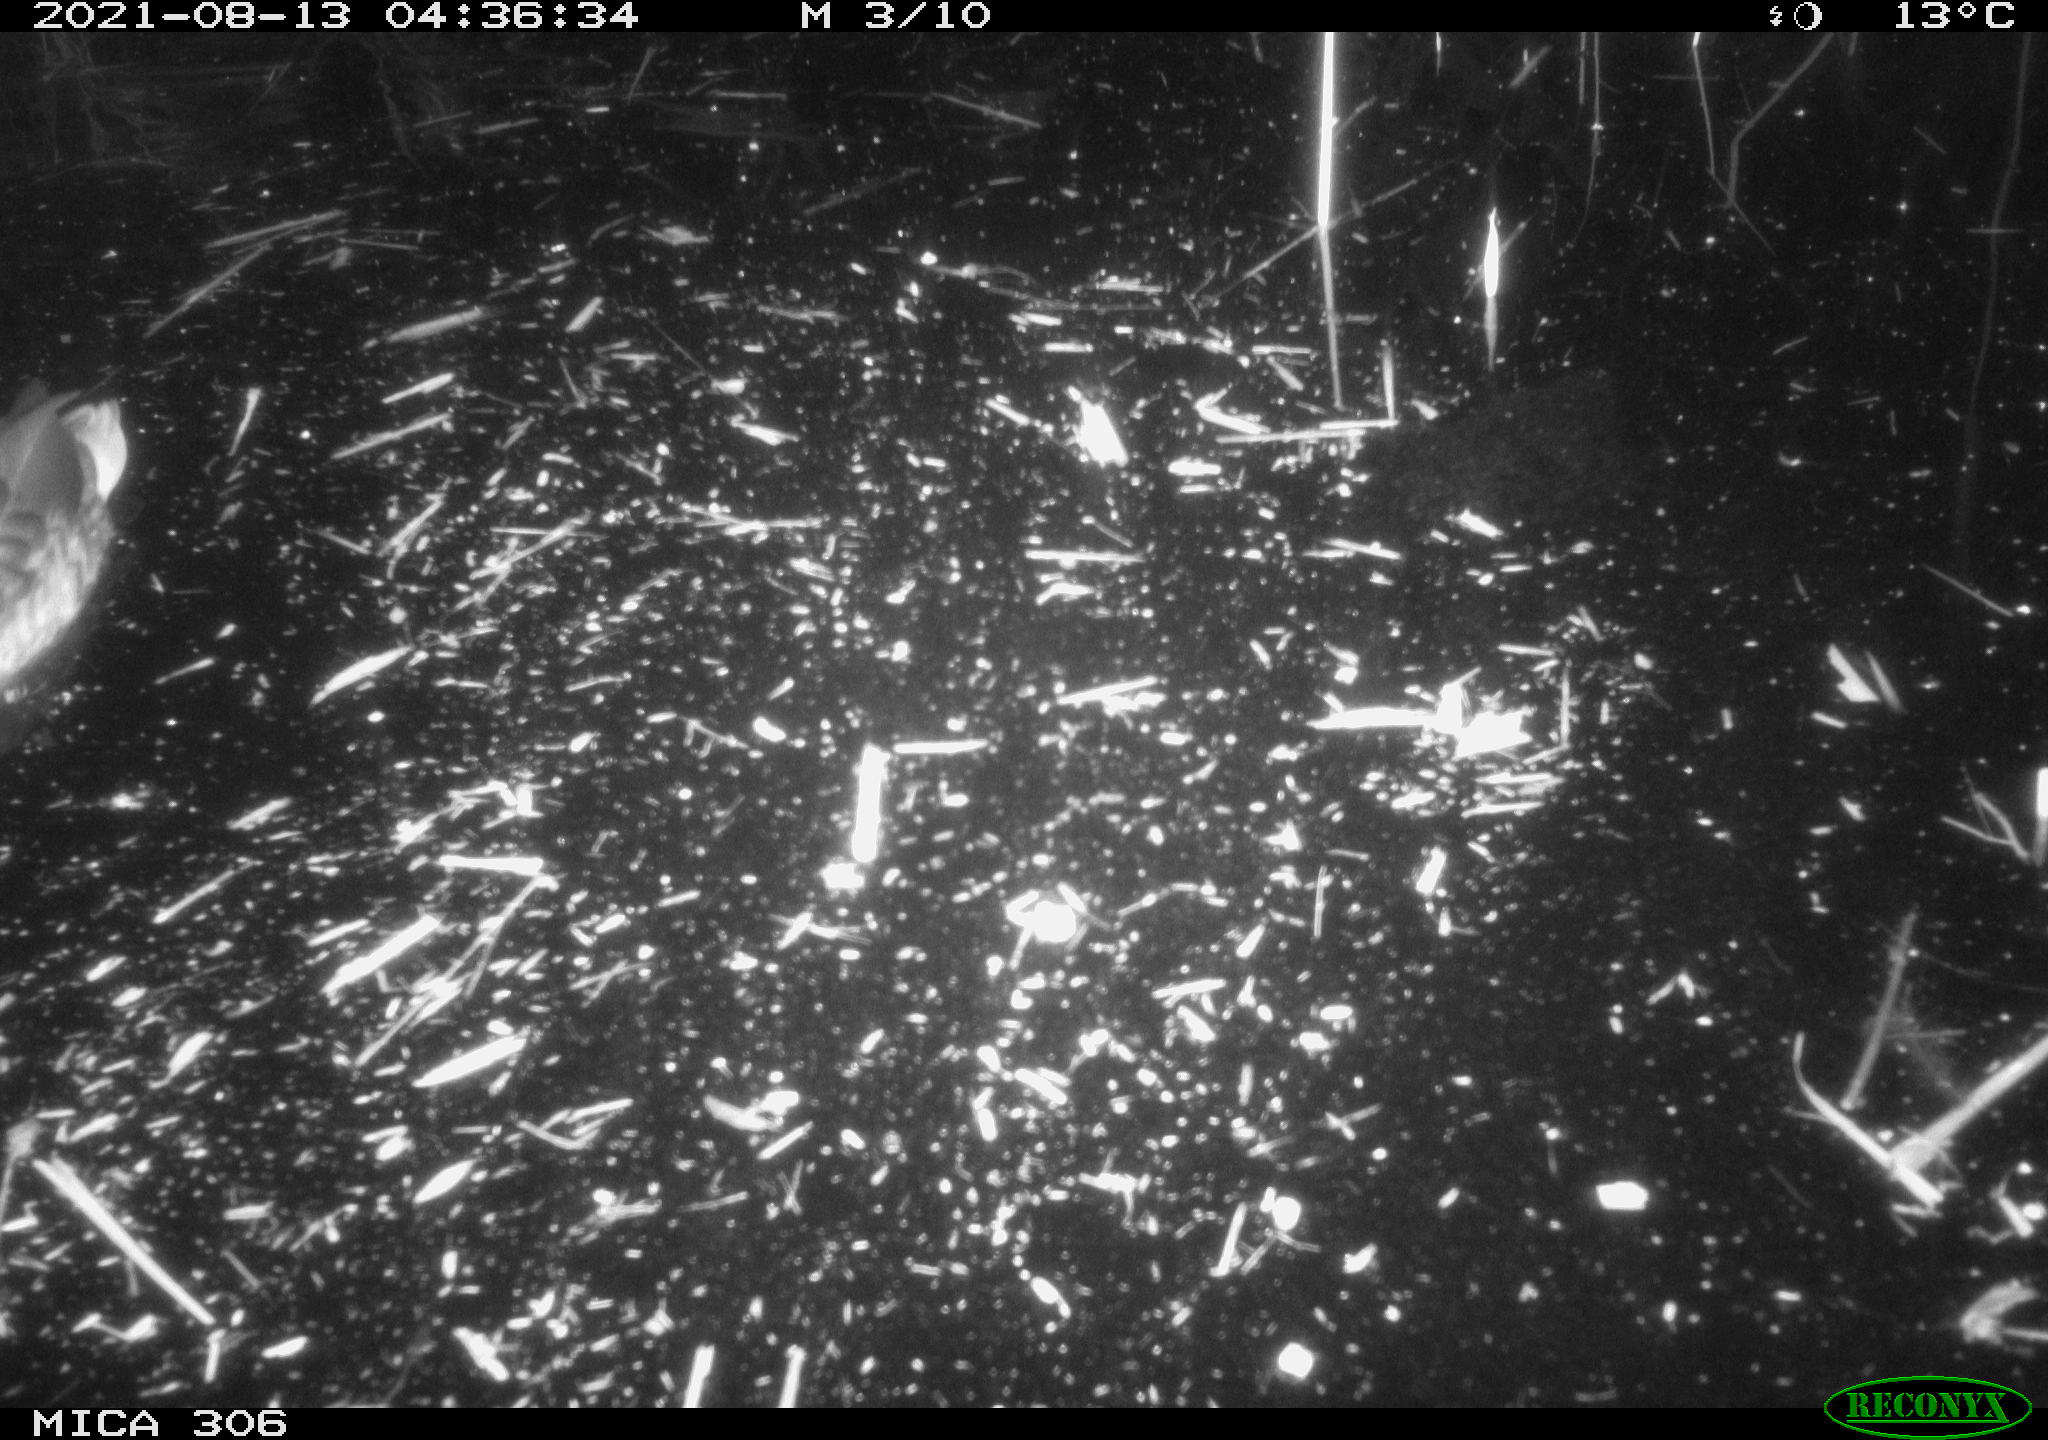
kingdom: Animalia
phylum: Chordata
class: Aves
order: Anseriformes
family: Anatidae
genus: Anas
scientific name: Anas platyrhynchos
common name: Mallard
